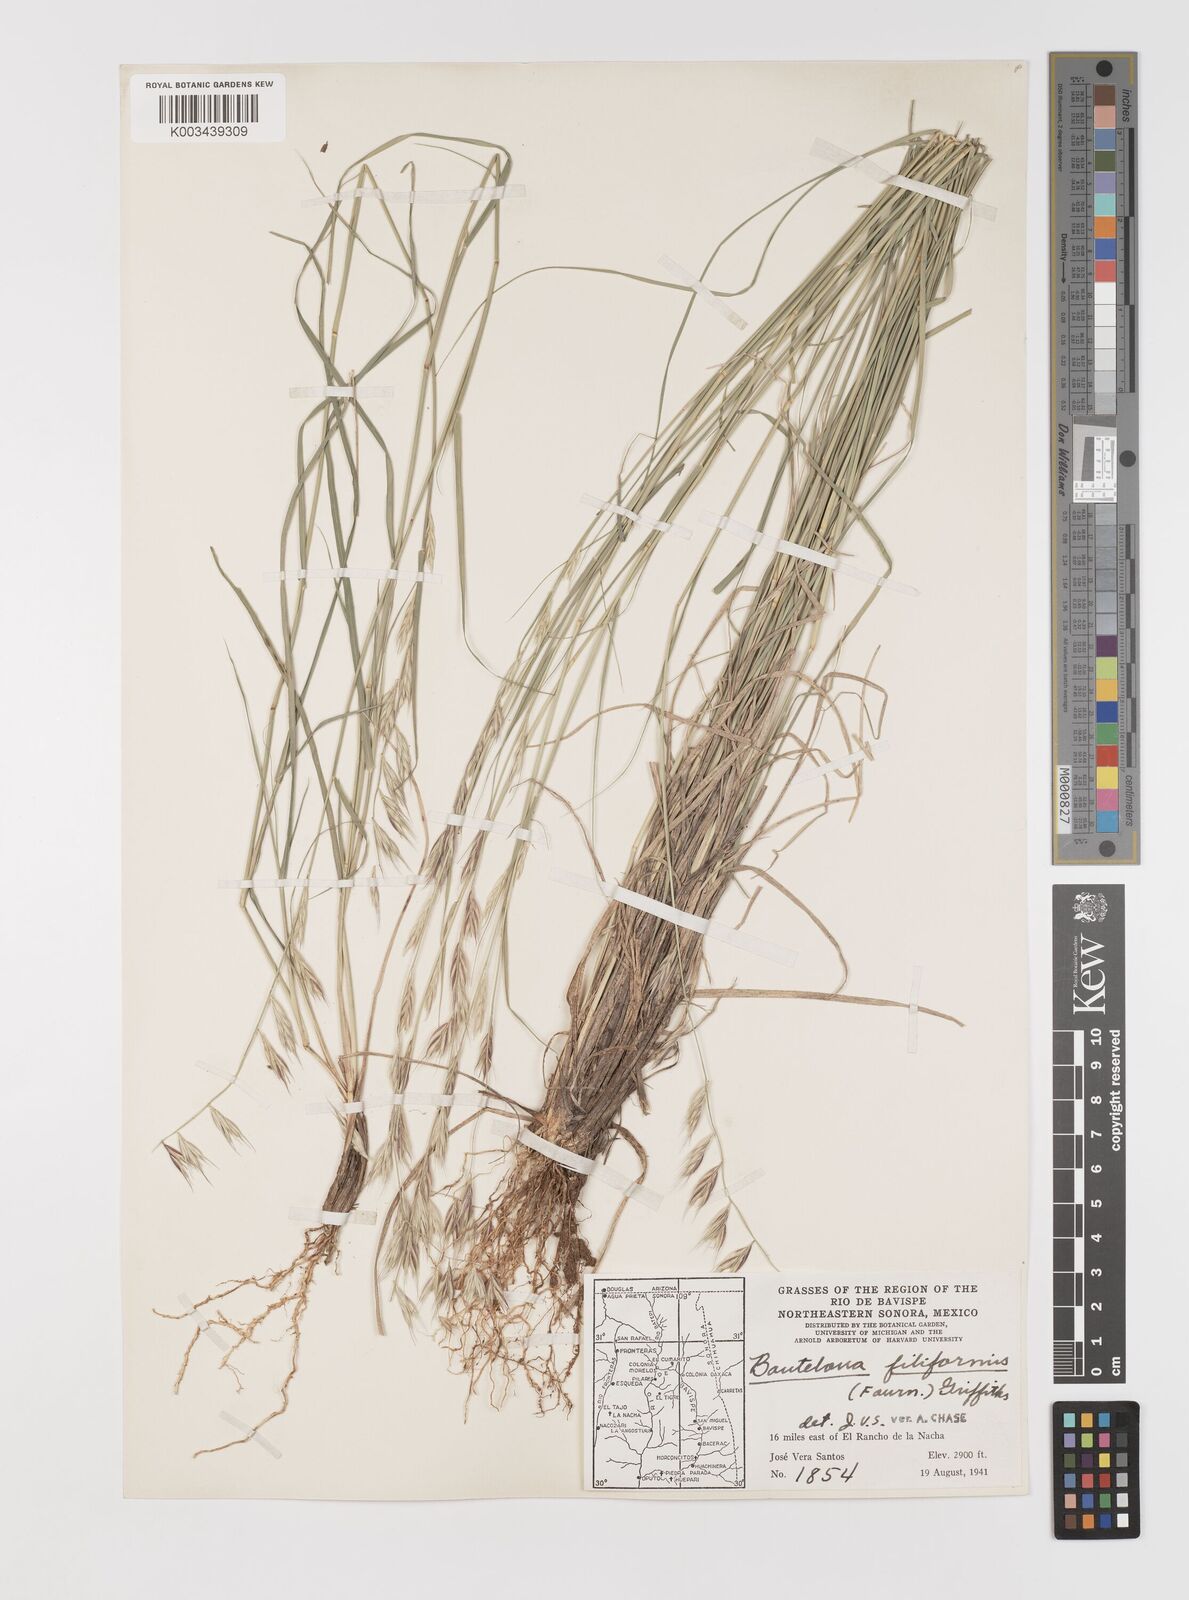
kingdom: Plantae
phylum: Tracheophyta
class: Liliopsida
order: Poales
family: Poaceae
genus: Bouteloua
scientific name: Bouteloua repens
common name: Slender grama
